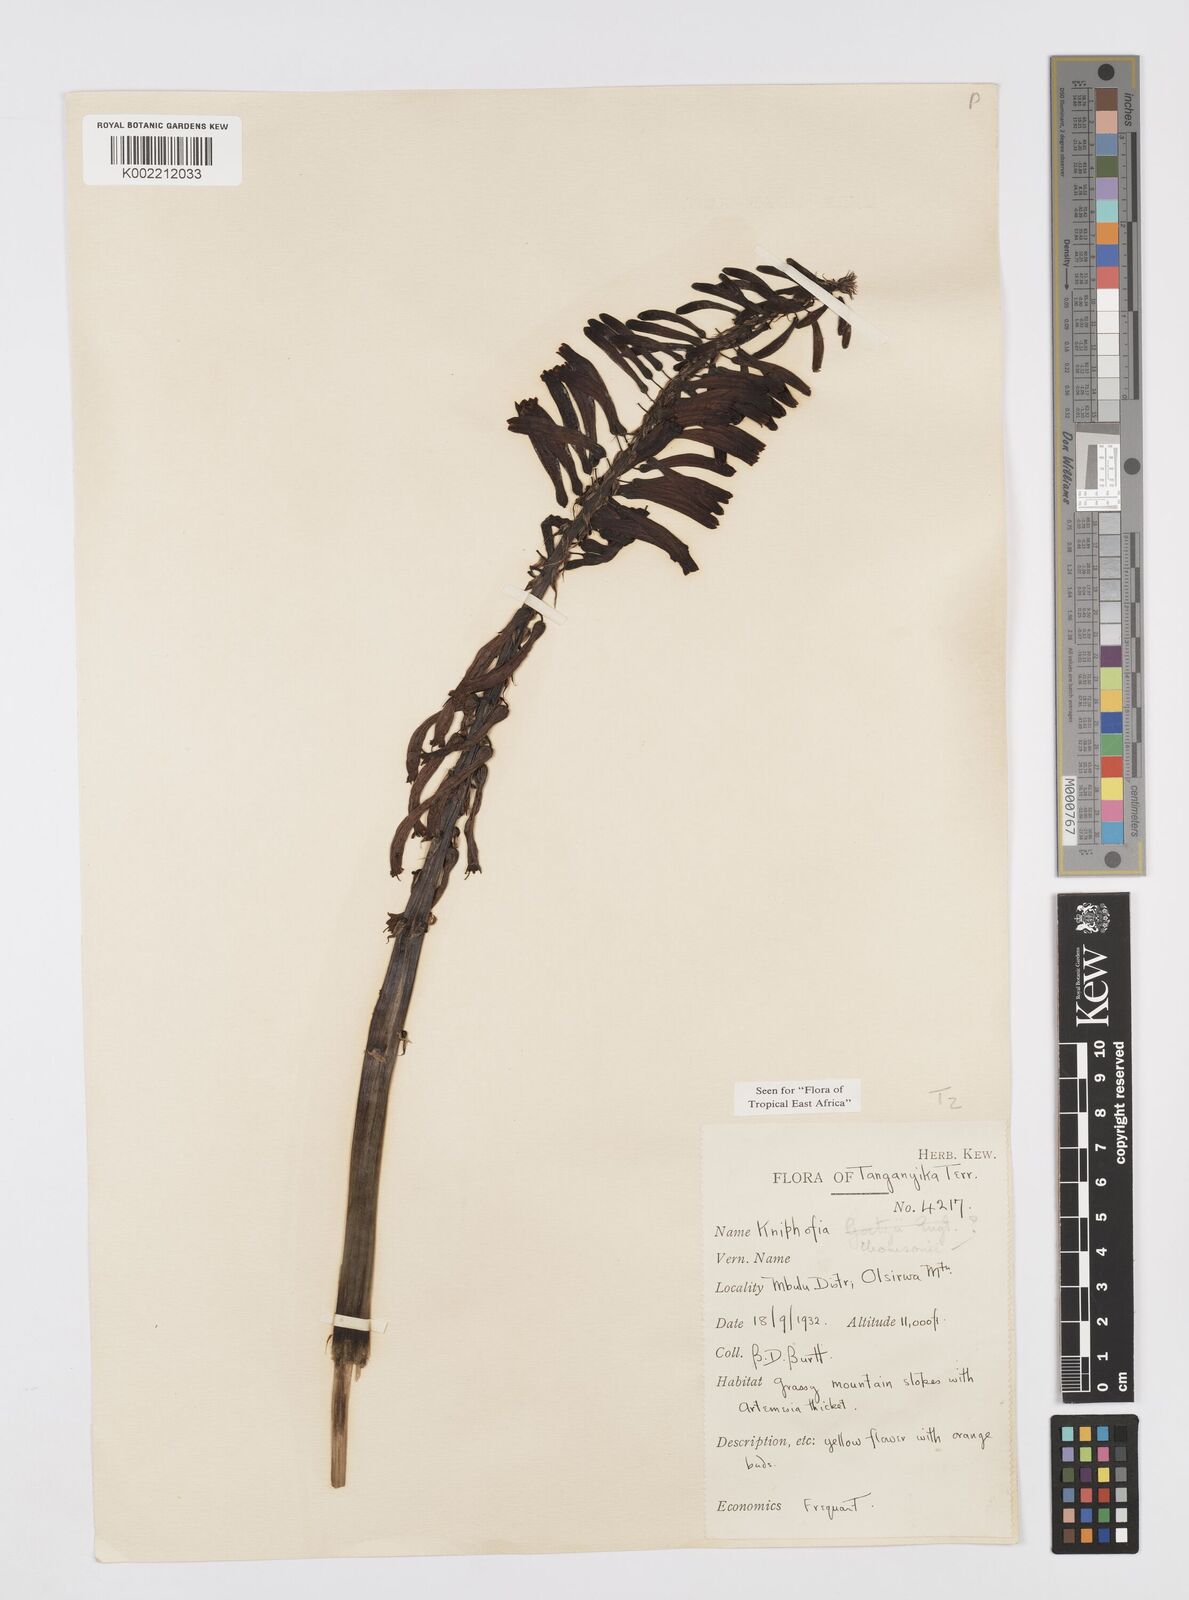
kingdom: Plantae
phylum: Tracheophyta
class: Liliopsida
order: Asparagales
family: Asphodelaceae
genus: Kniphofia
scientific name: Kniphofia thomsonii
